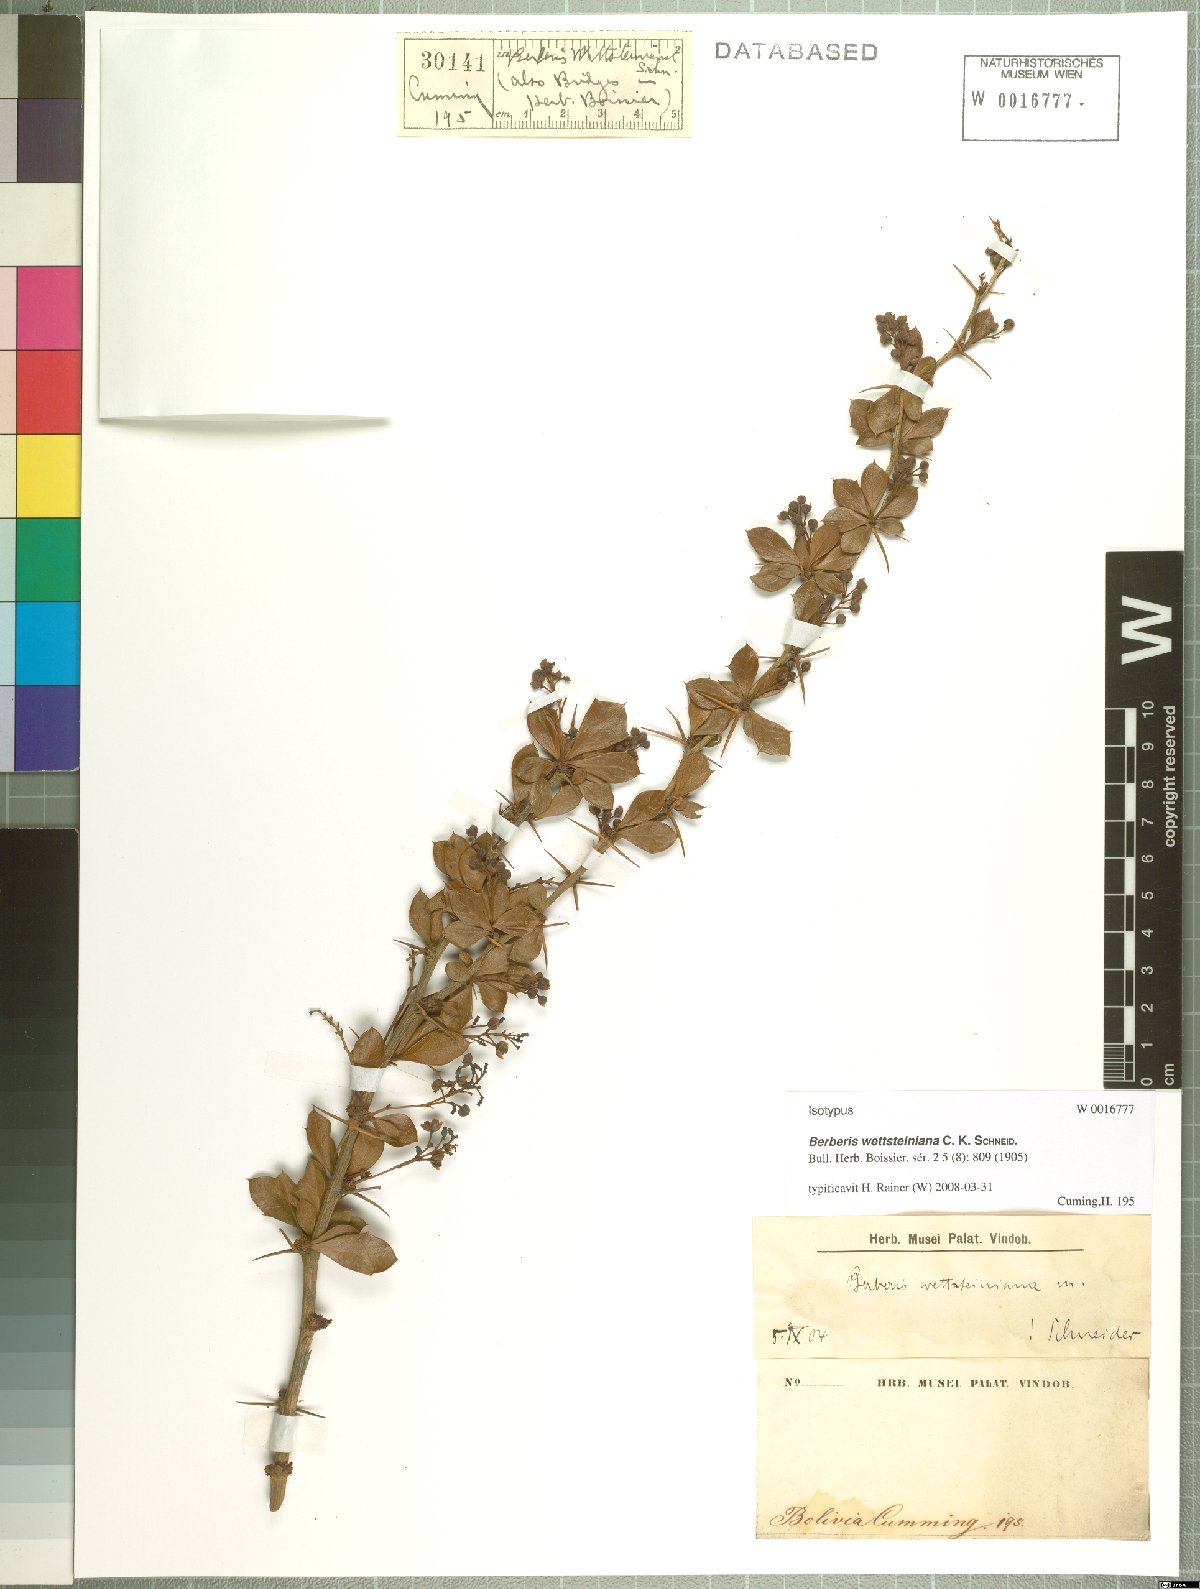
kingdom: Plantae
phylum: Tracheophyta
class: Magnoliopsida
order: Ranunculales
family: Berberidaceae
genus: Berberis
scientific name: Berberis ferruginea
